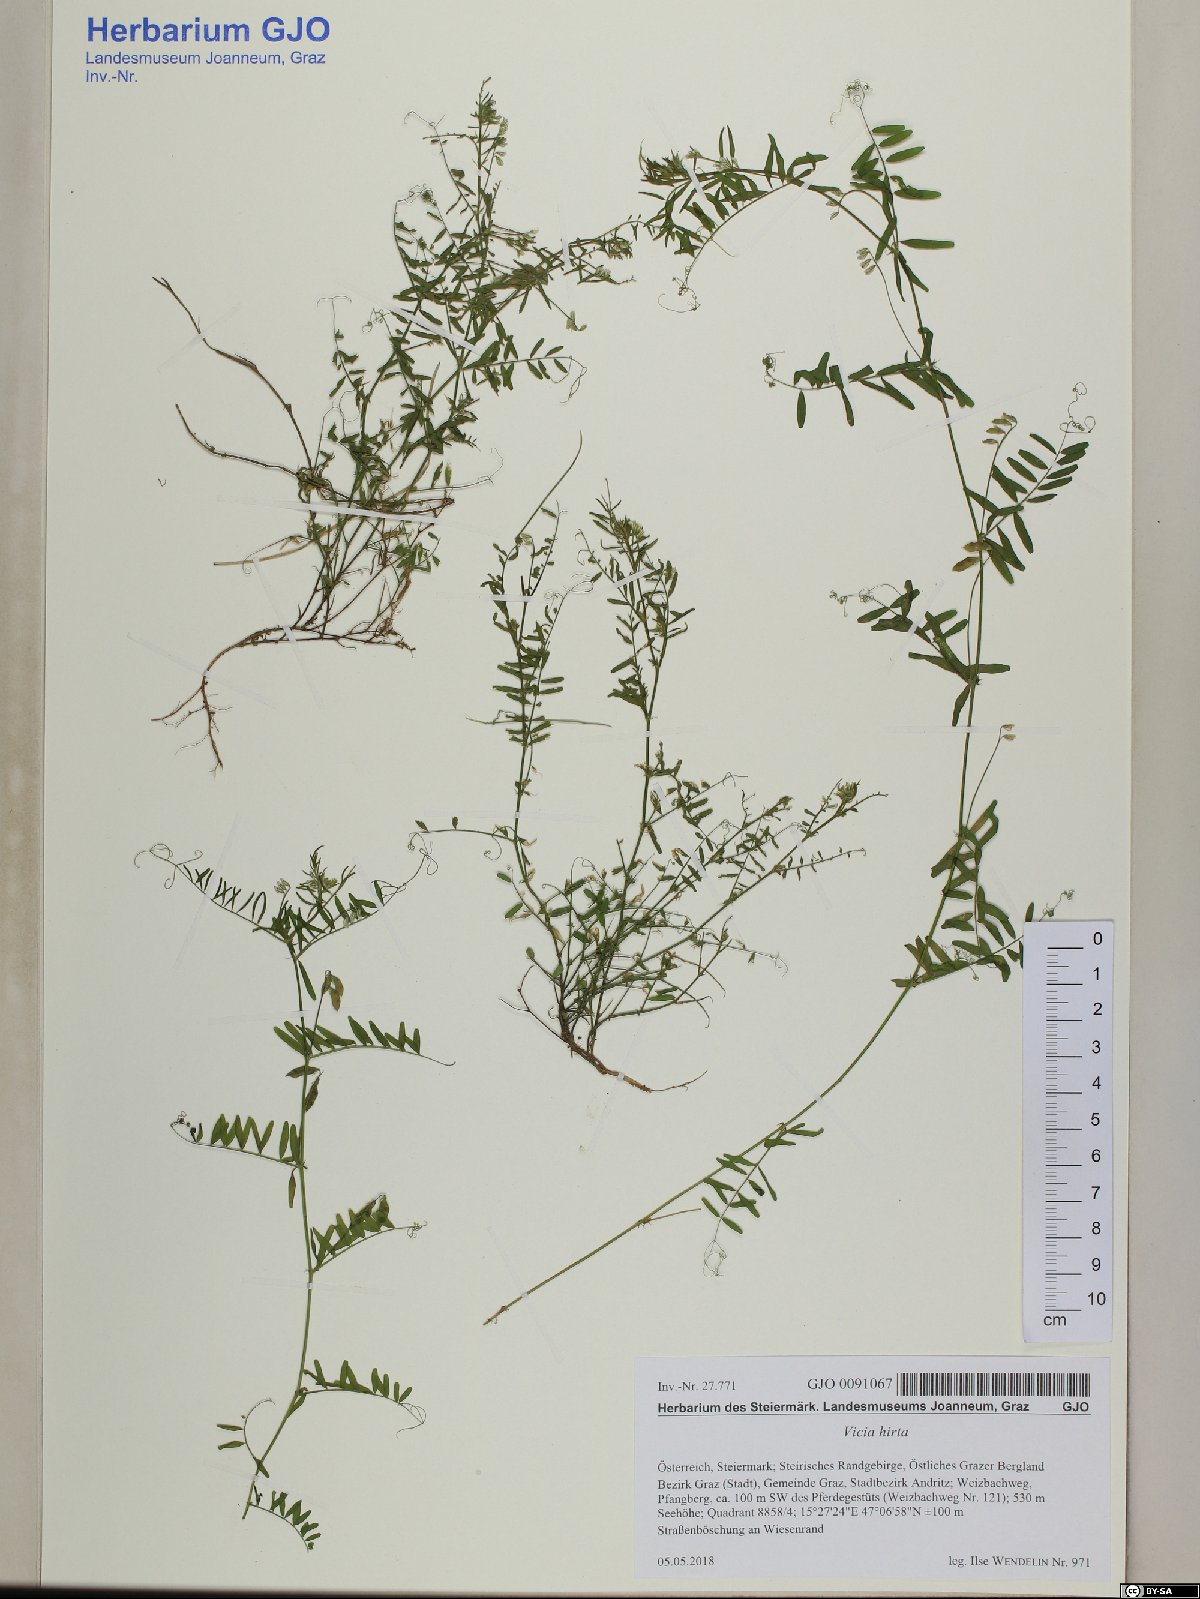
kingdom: Plantae
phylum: Tracheophyta
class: Magnoliopsida
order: Fabales
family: Fabaceae
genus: Vicia
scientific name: Vicia hirsuta
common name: Tiny vetch
